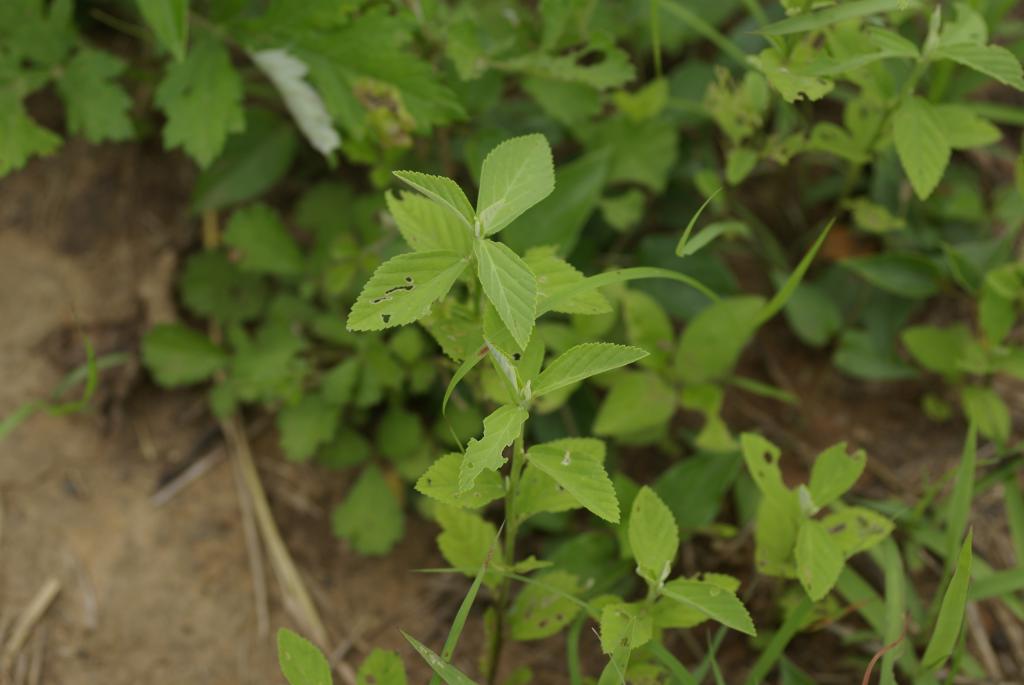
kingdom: Plantae
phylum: Tracheophyta
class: Magnoliopsida
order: Malvales
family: Malvaceae
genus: Sida
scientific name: Sida rhombifolia
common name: Queensland-hemp
